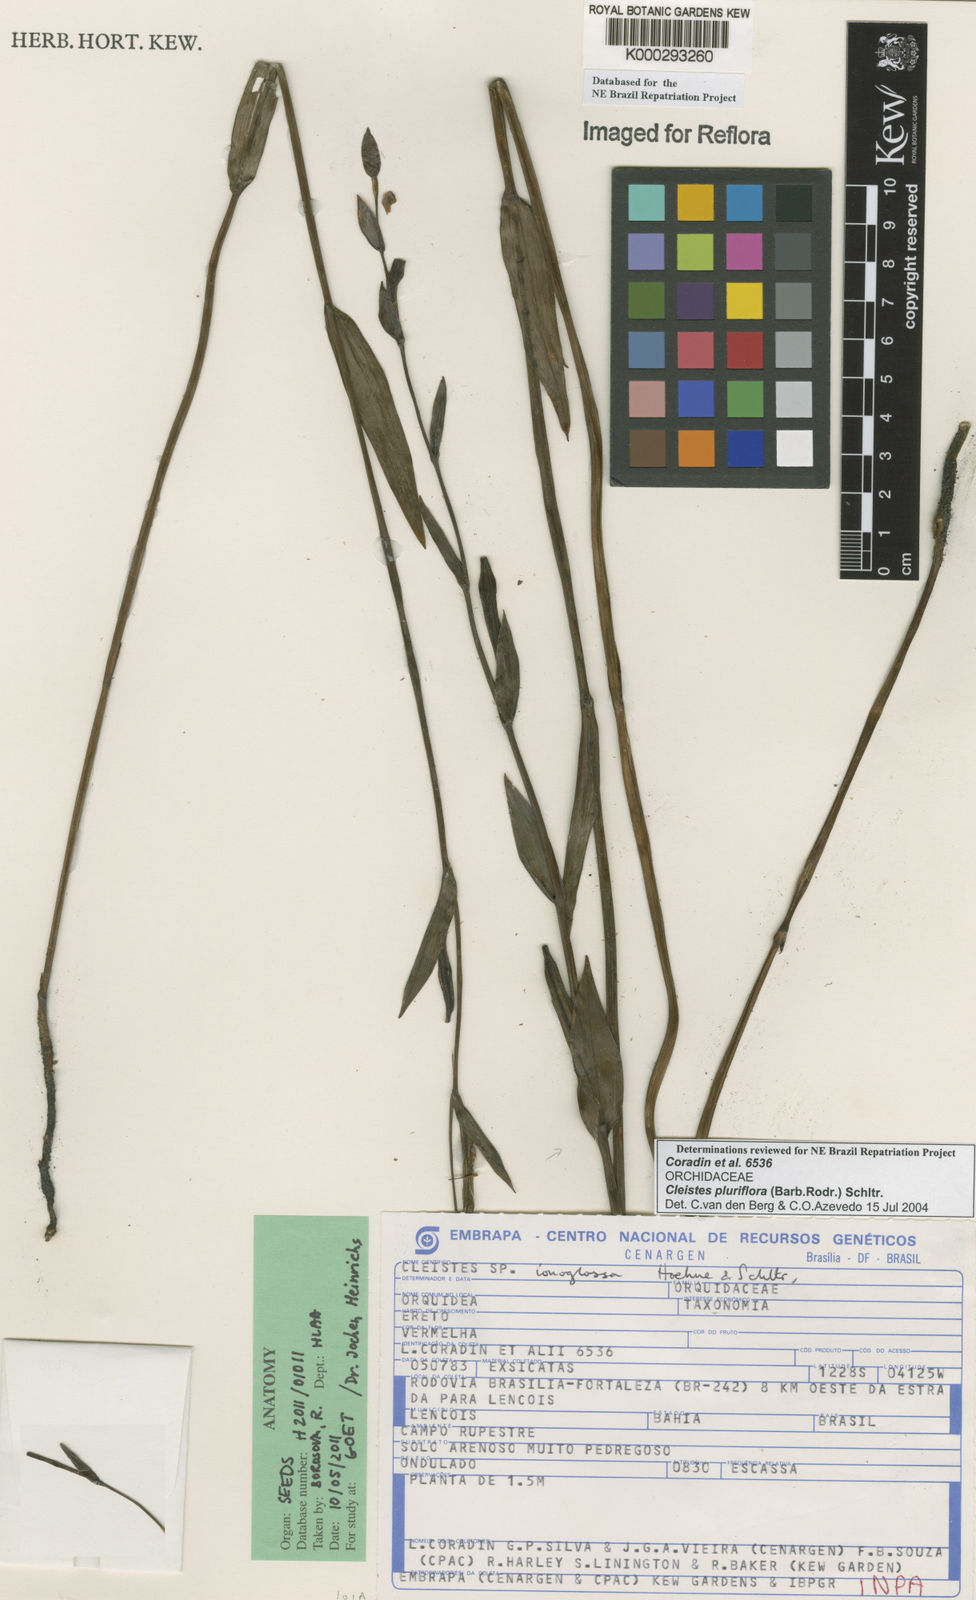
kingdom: Plantae
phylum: Tracheophyta
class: Liliopsida
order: Asparagales
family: Orchidaceae
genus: Cleistes
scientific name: Cleistes moritzii
